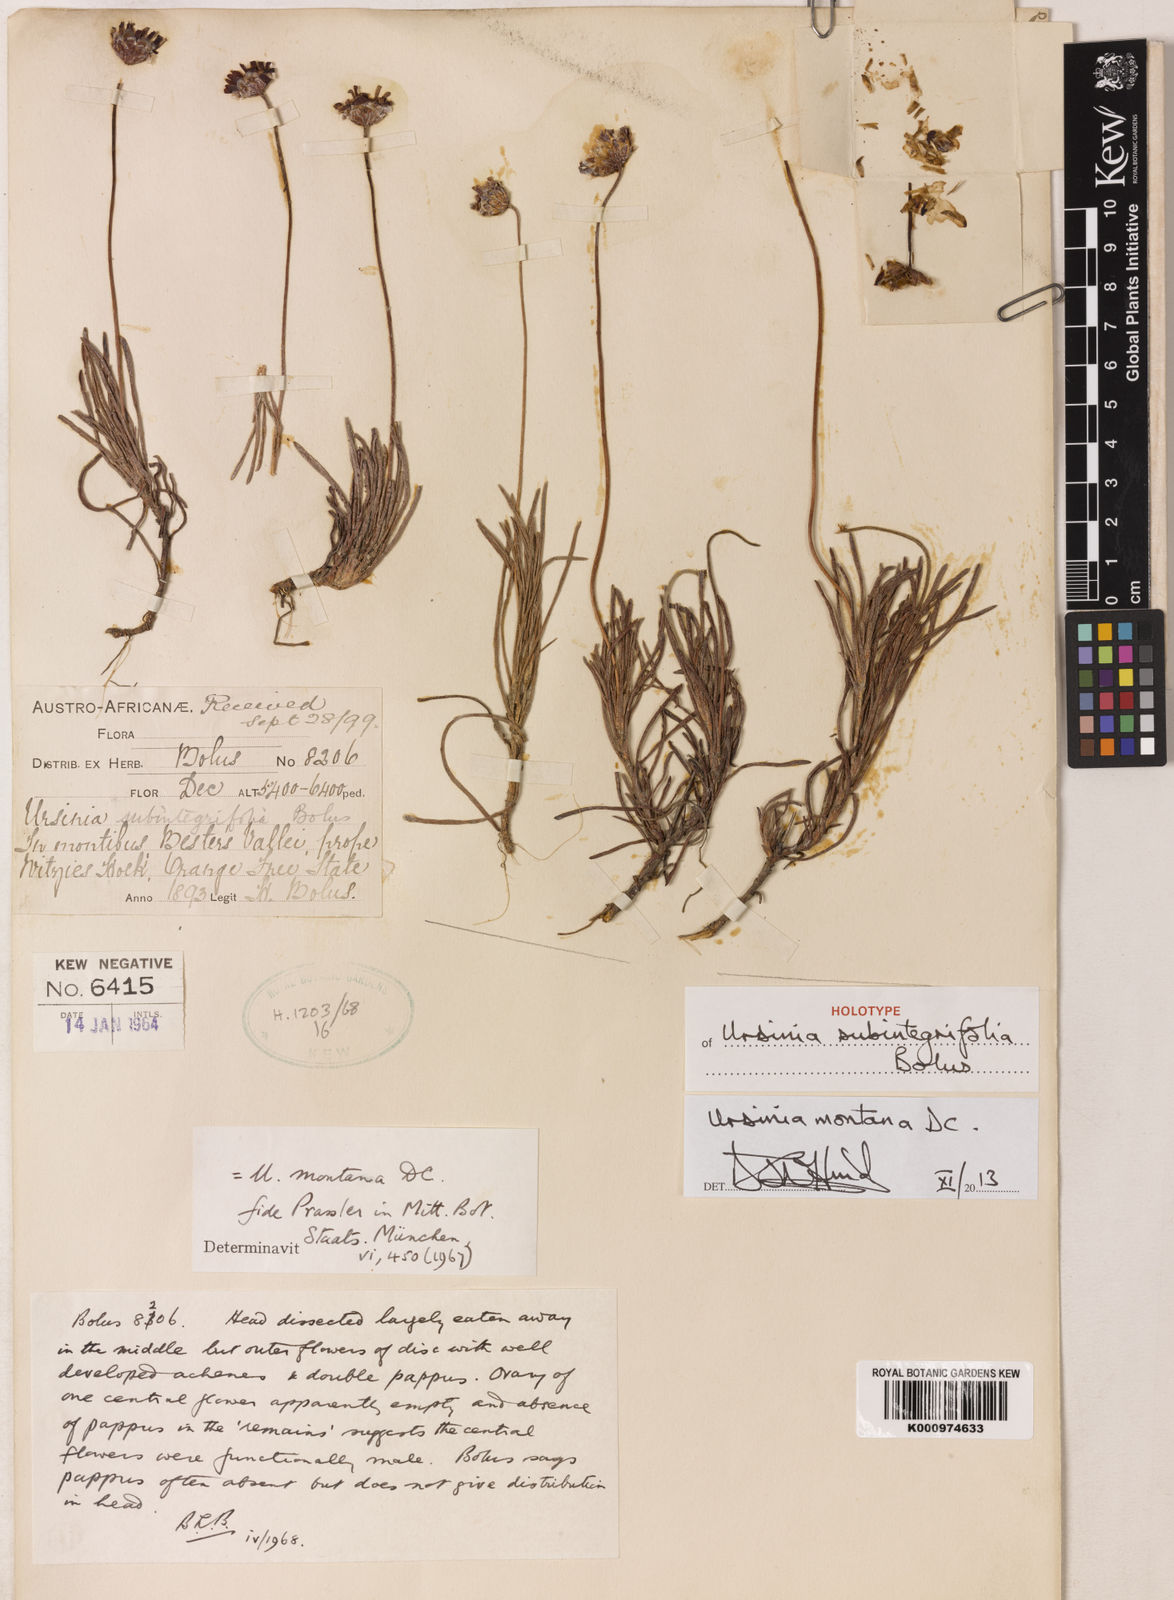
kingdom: Plantae
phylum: Tracheophyta
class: Magnoliopsida
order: Asterales
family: Asteraceae
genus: Ursinia
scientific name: Ursinia montana
